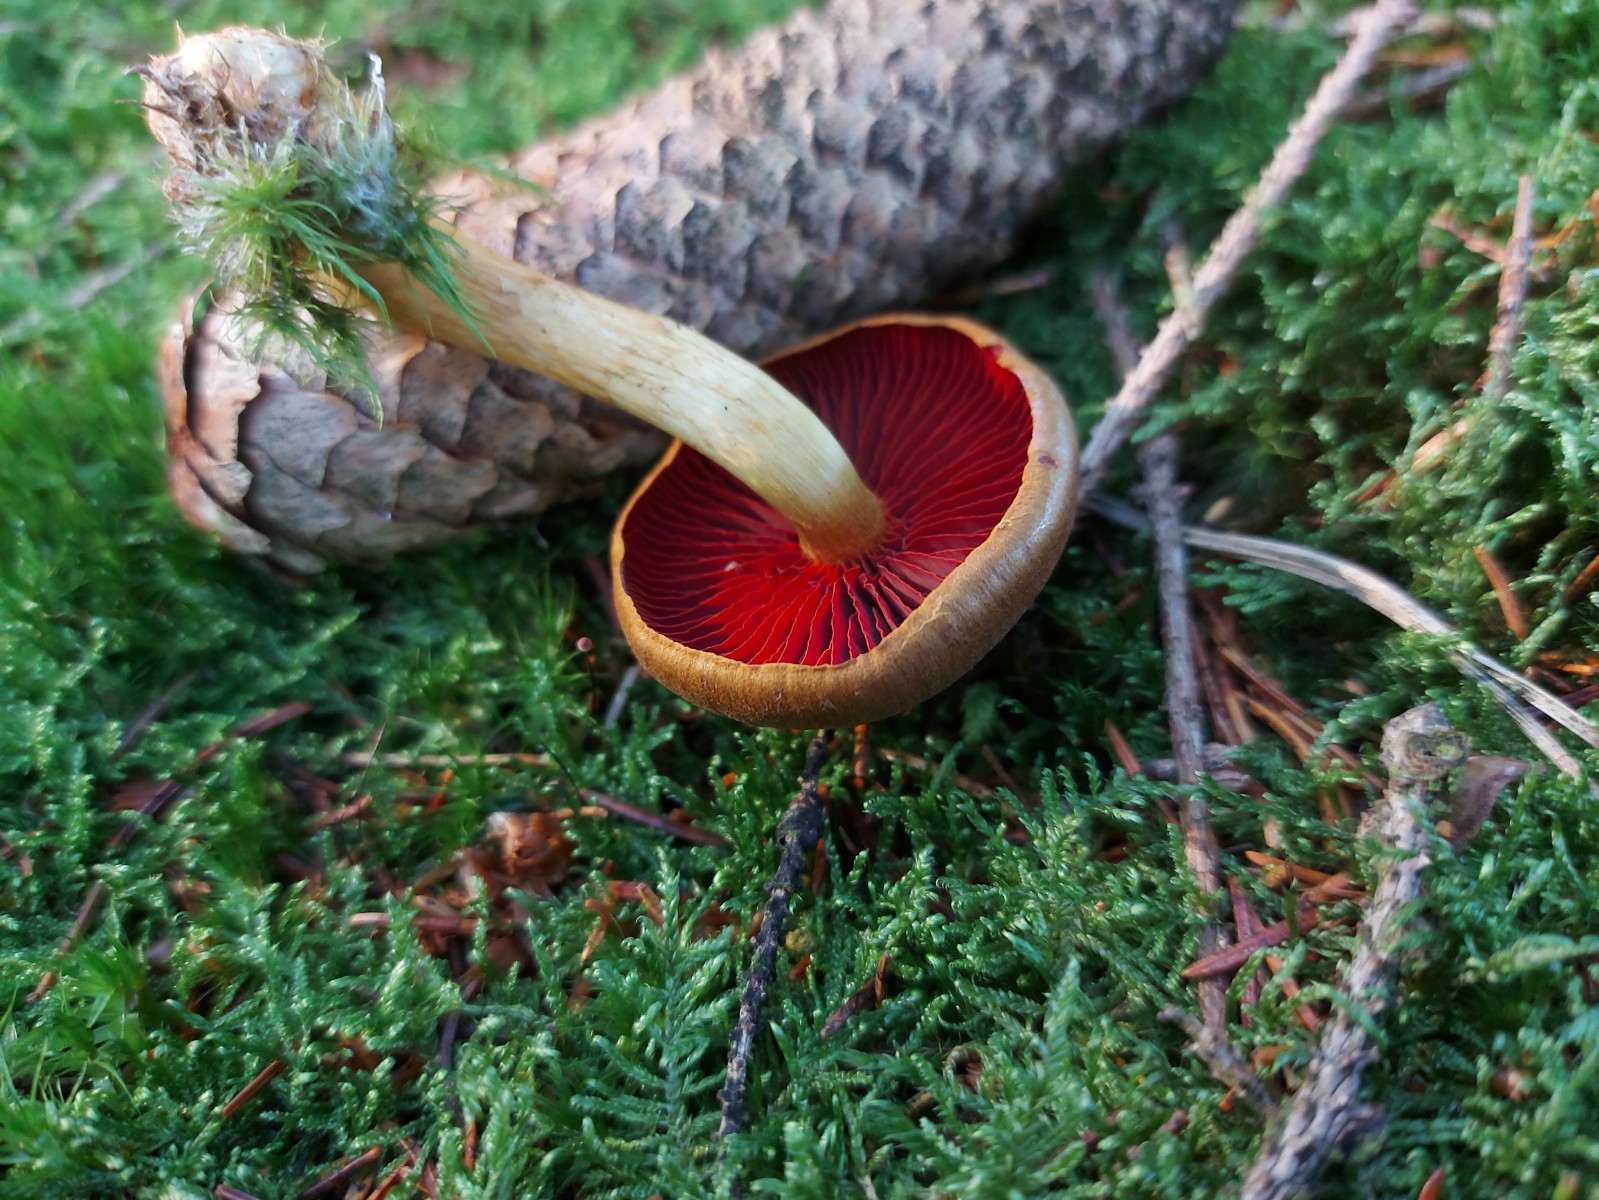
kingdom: Fungi
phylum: Basidiomycota
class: Agaricomycetes
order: Agaricales
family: Cortinariaceae
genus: Cortinarius
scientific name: Cortinarius
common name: cinnoberbladet slørhat
